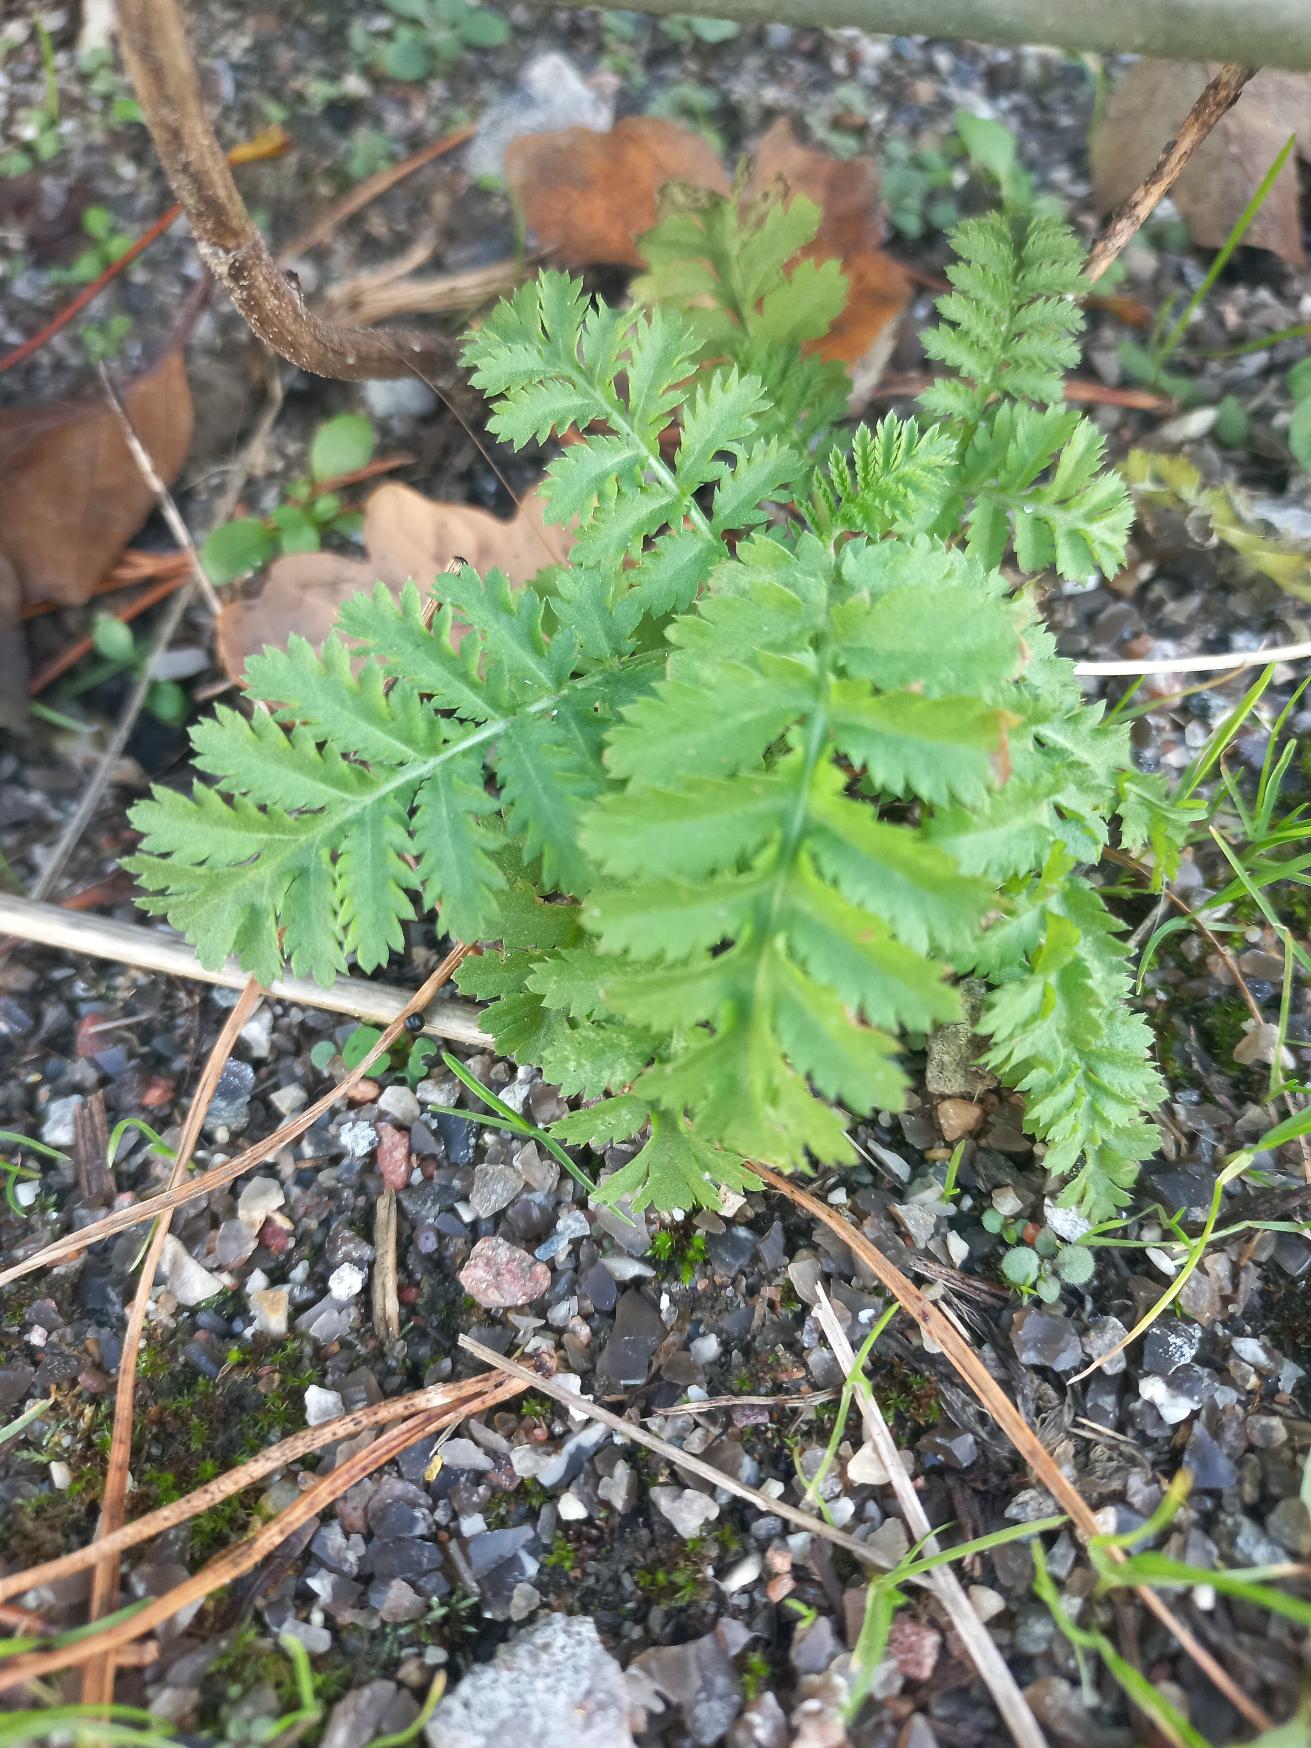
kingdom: Plantae
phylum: Tracheophyta
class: Magnoliopsida
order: Asterales
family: Asteraceae
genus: Tanacetum
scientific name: Tanacetum vulgare
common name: Rejnfan
